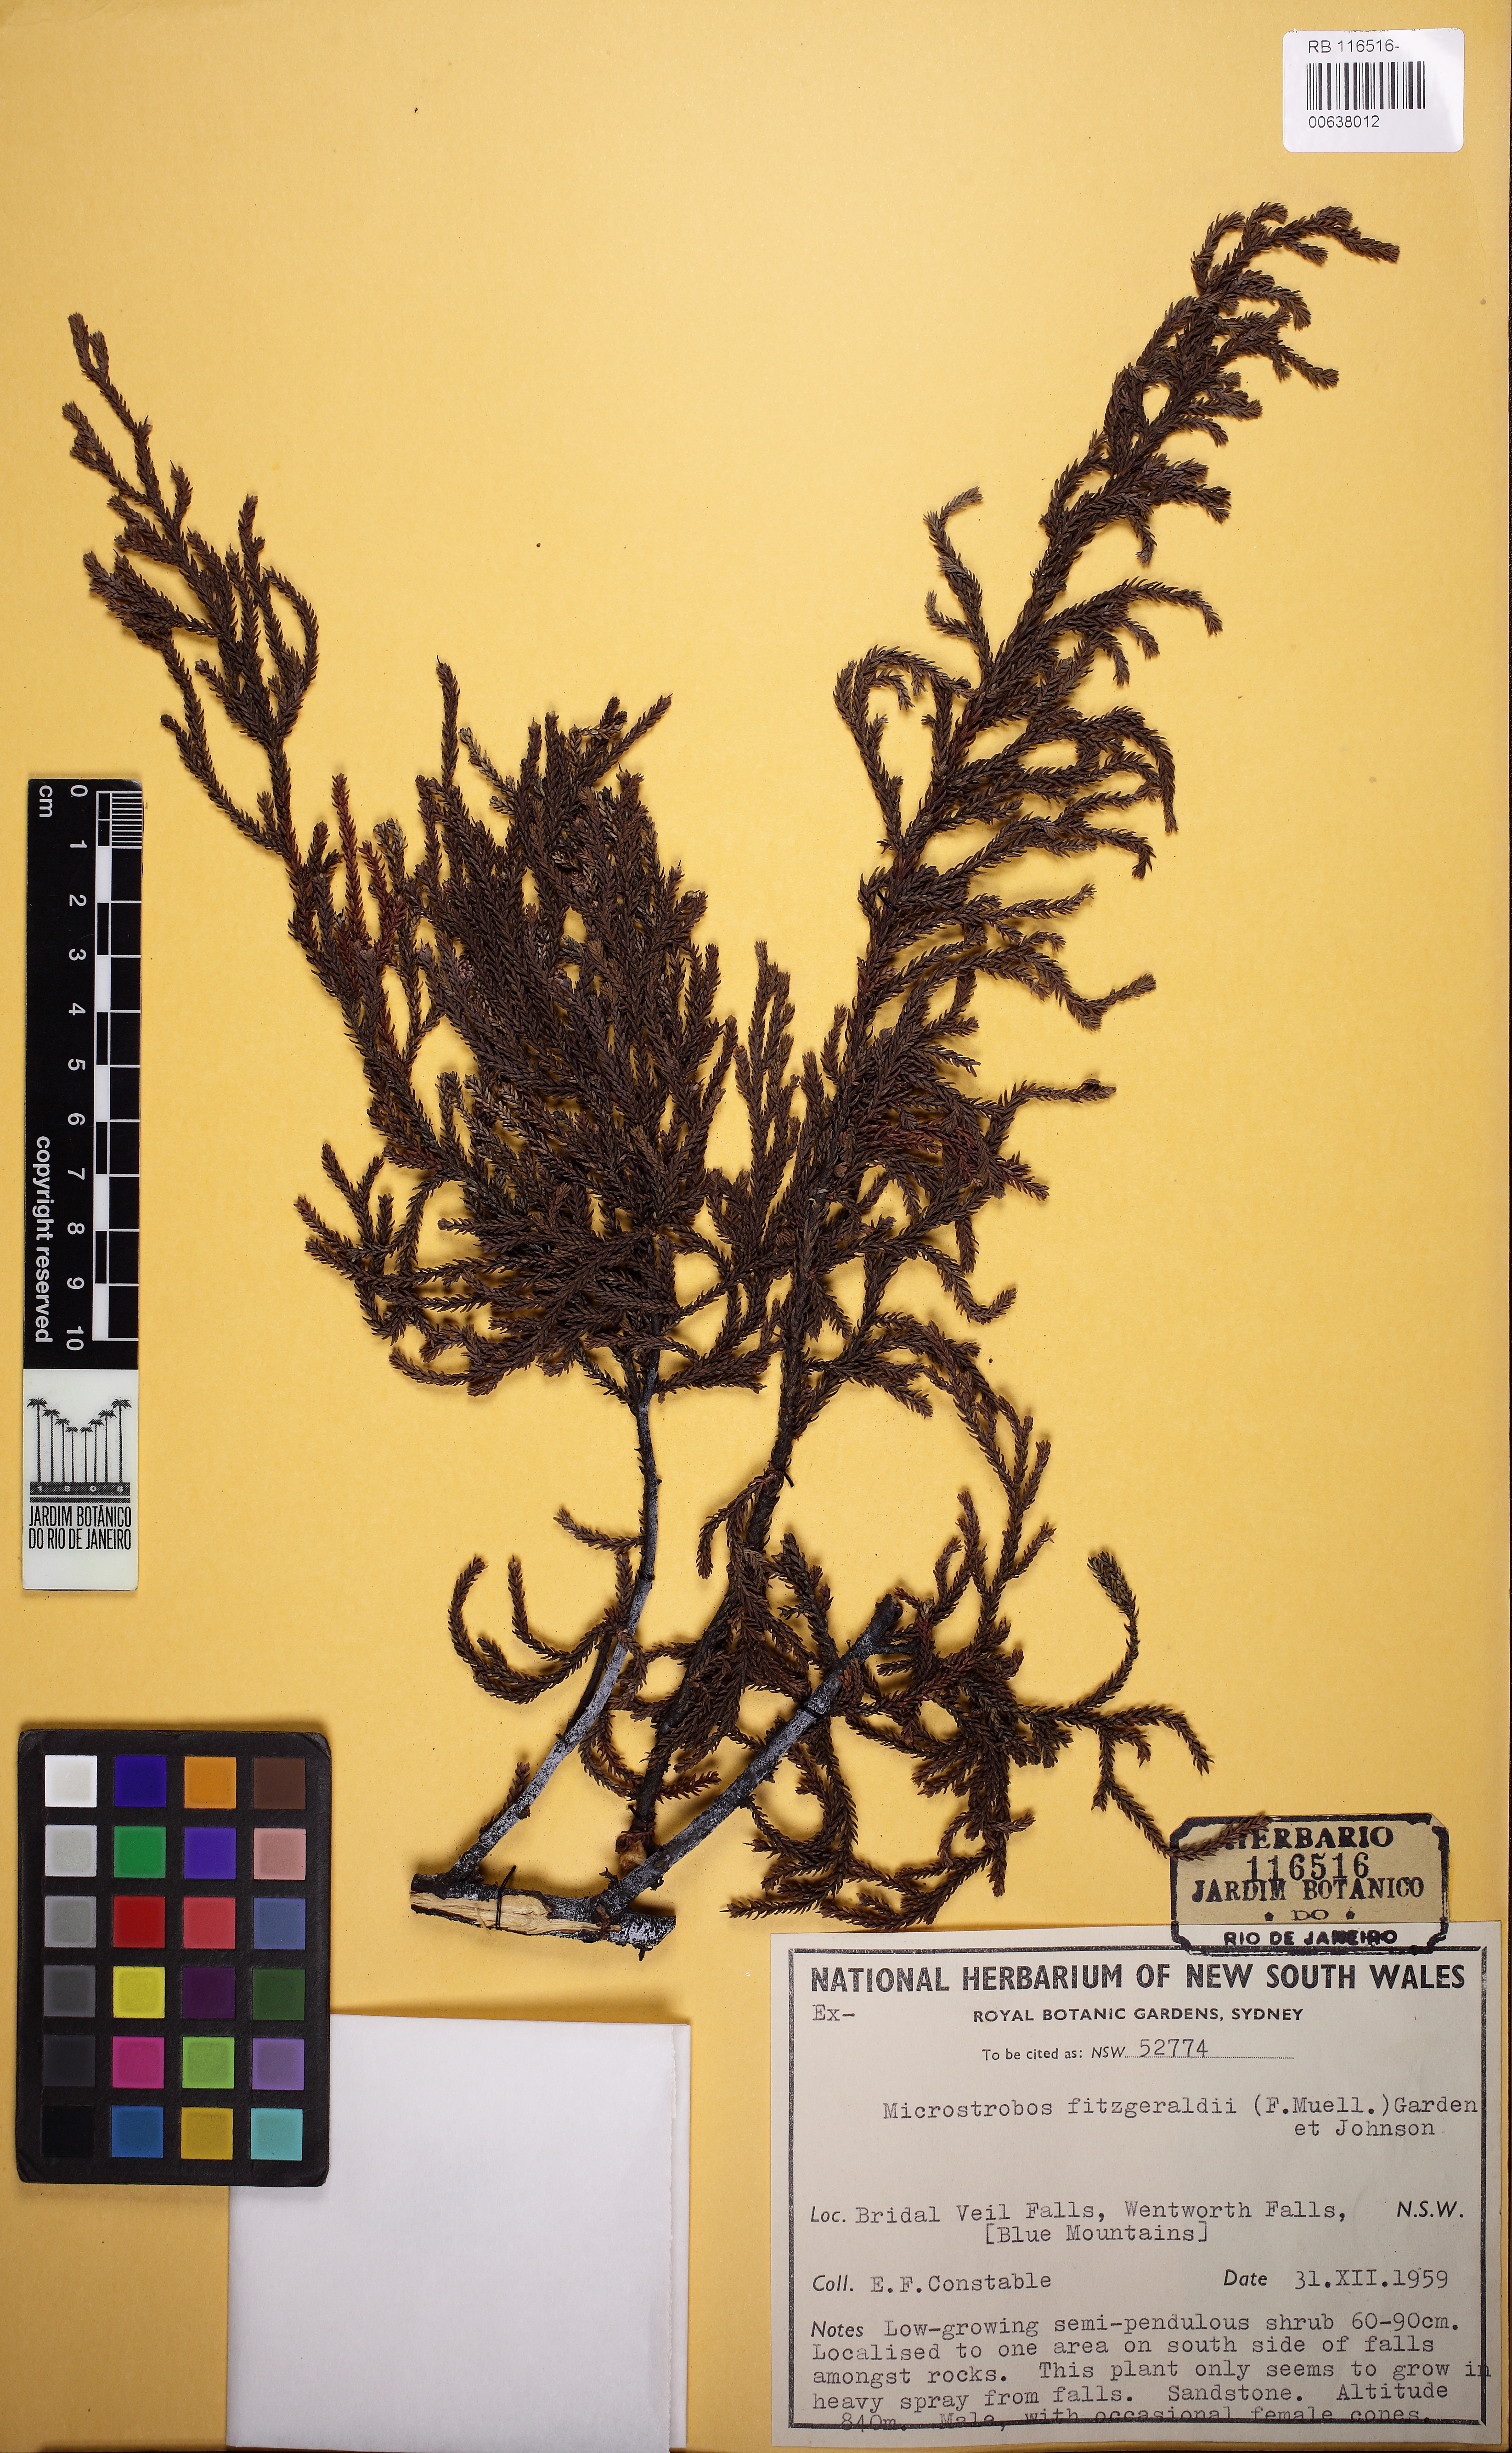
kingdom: Plantae
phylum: Tracheophyta
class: Pinopsida
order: Pinales
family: Podocarpaceae
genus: Pherosphaera
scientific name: Pherosphaera fitzgeraldii
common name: Dwarf mountain pine
